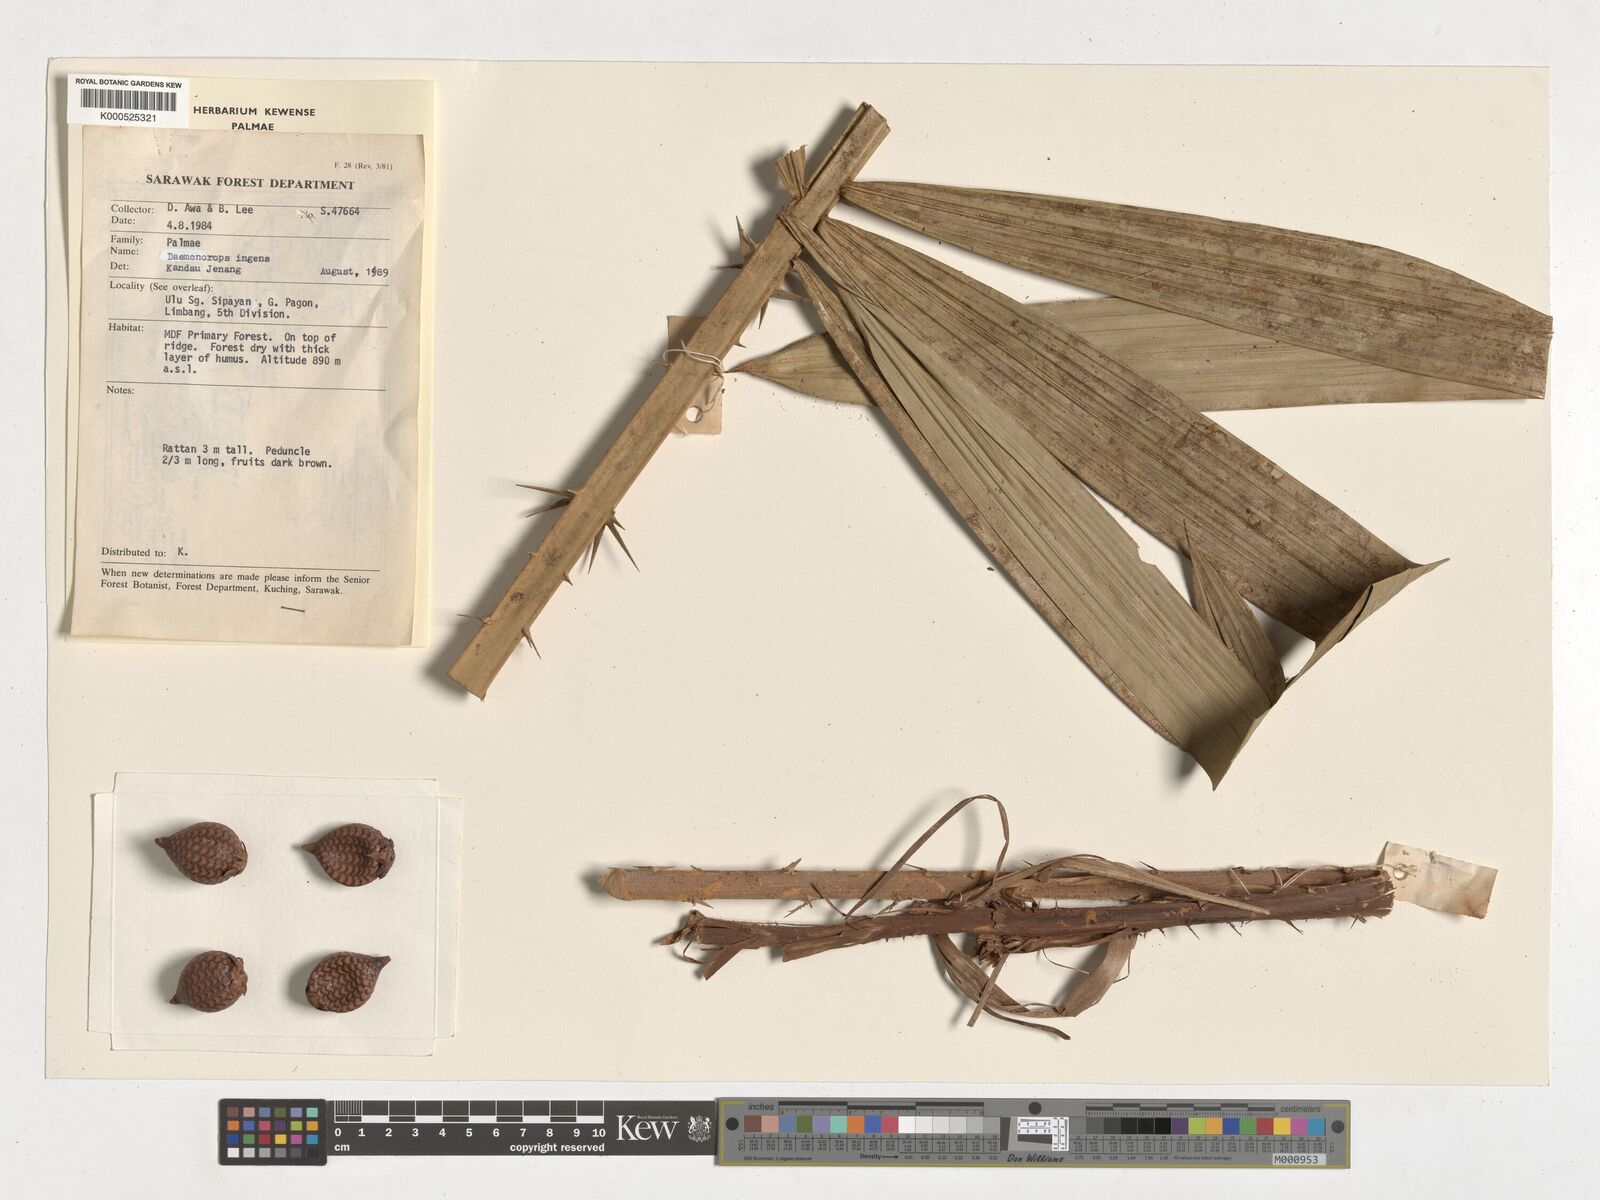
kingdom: Plantae
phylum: Tracheophyta
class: Liliopsida
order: Arecales
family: Arecaceae
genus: Calamus
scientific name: Calamus ingens
